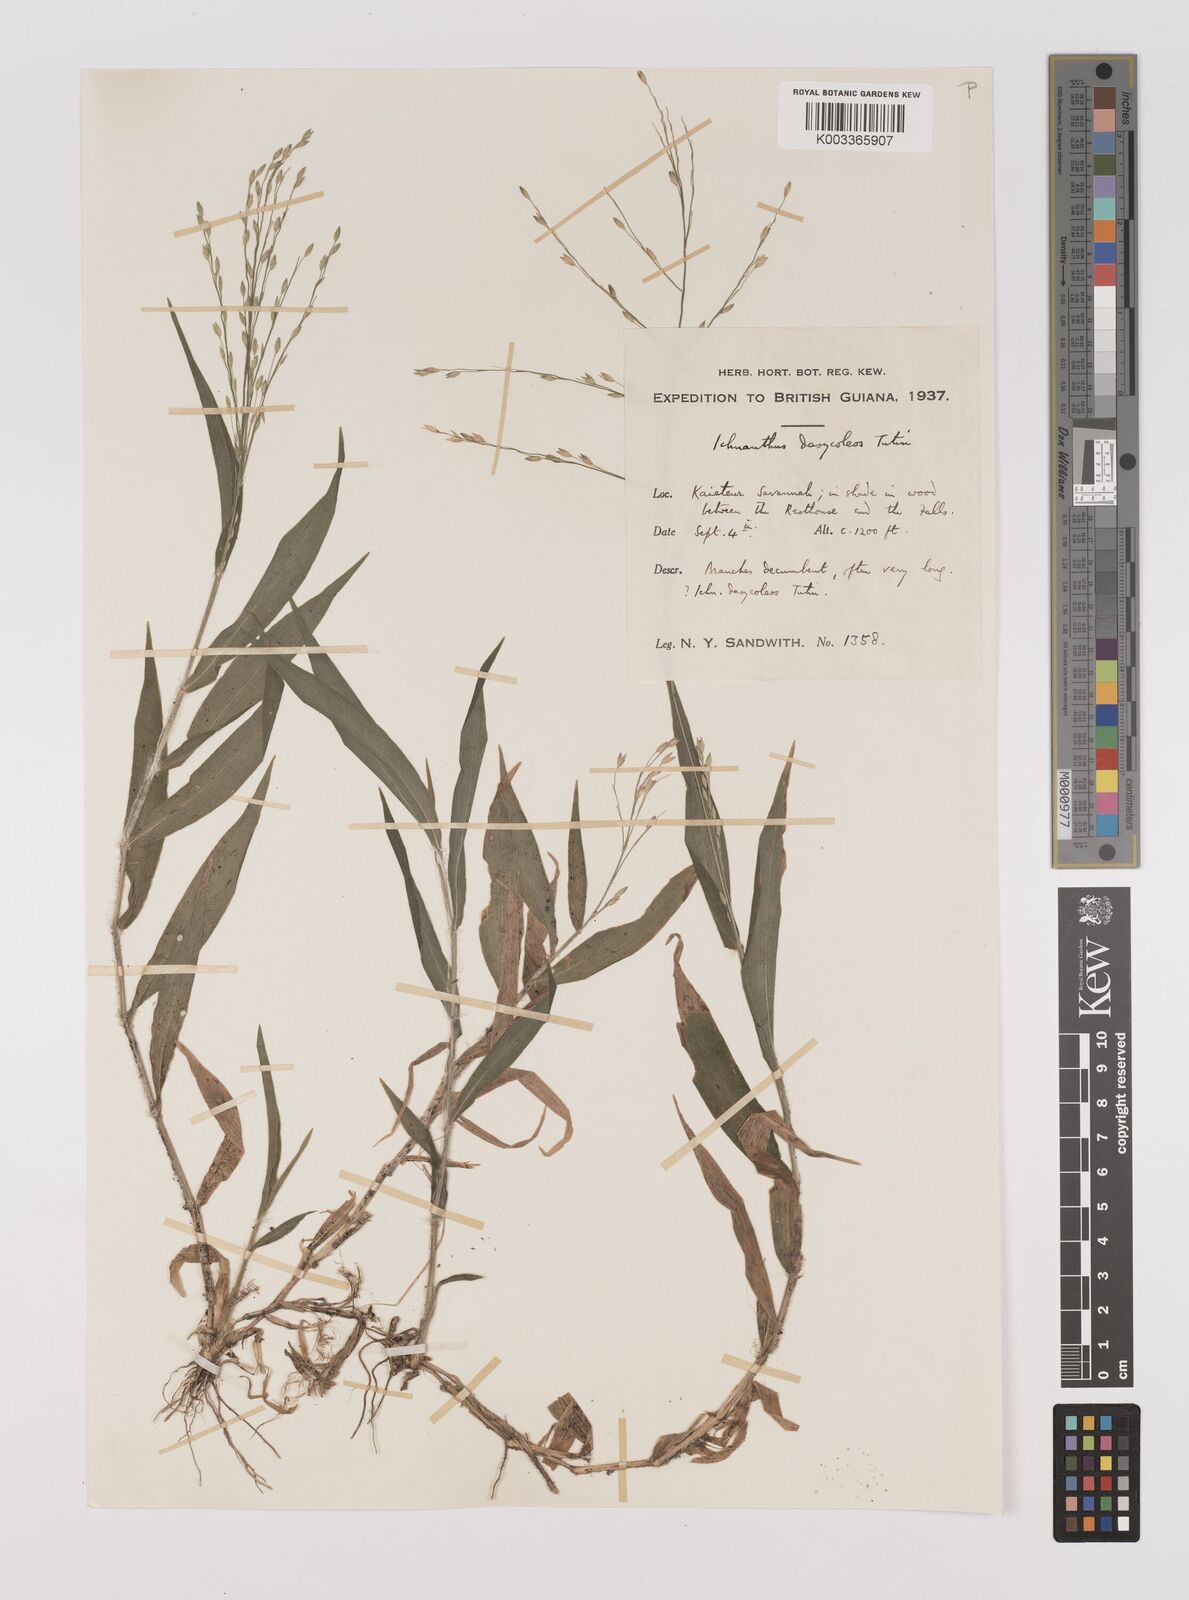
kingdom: Plantae
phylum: Tracheophyta
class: Liliopsida
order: Poales
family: Poaceae
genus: Ichnanthus
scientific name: Ichnanthus dasycoleus
